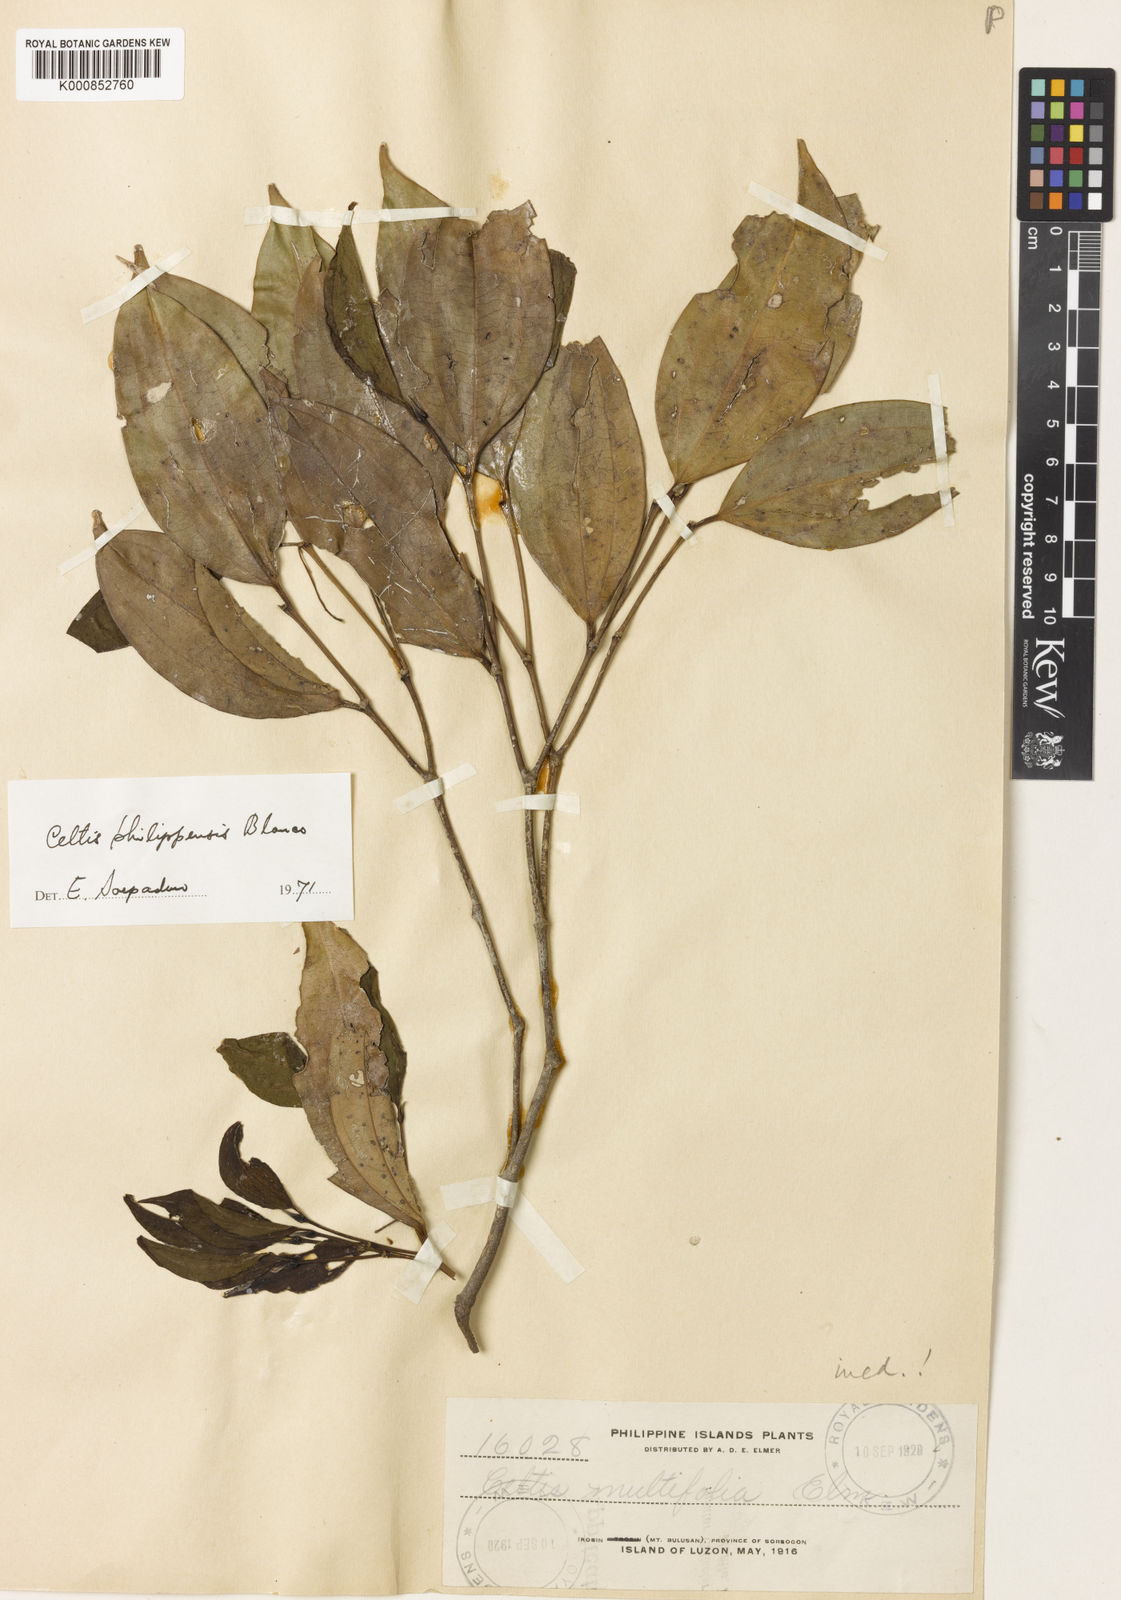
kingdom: Plantae
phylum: Tracheophyta
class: Magnoliopsida
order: Rosales
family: Cannabaceae
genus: Celtis
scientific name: Celtis philippensis
